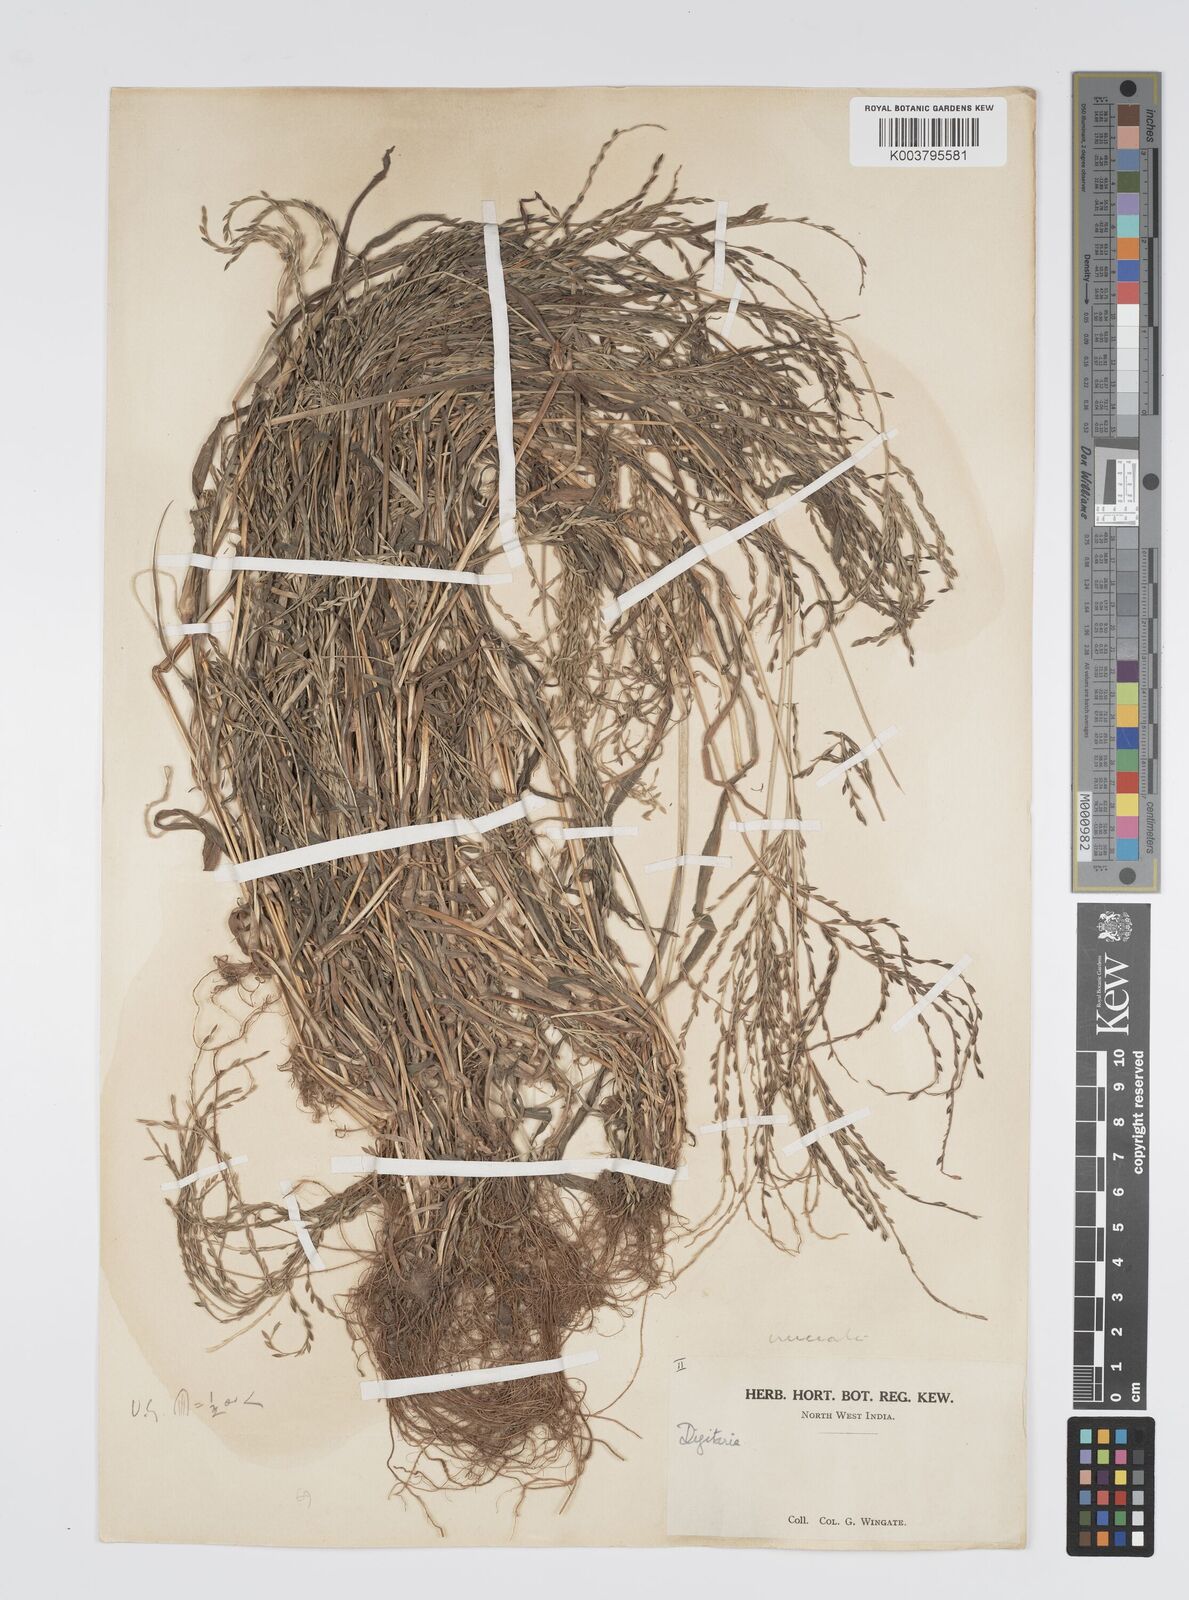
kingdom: Plantae
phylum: Tracheophyta
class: Liliopsida
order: Poales
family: Poaceae
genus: Digitaria
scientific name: Digitaria sanguinalis
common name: Hairy crabgrass
